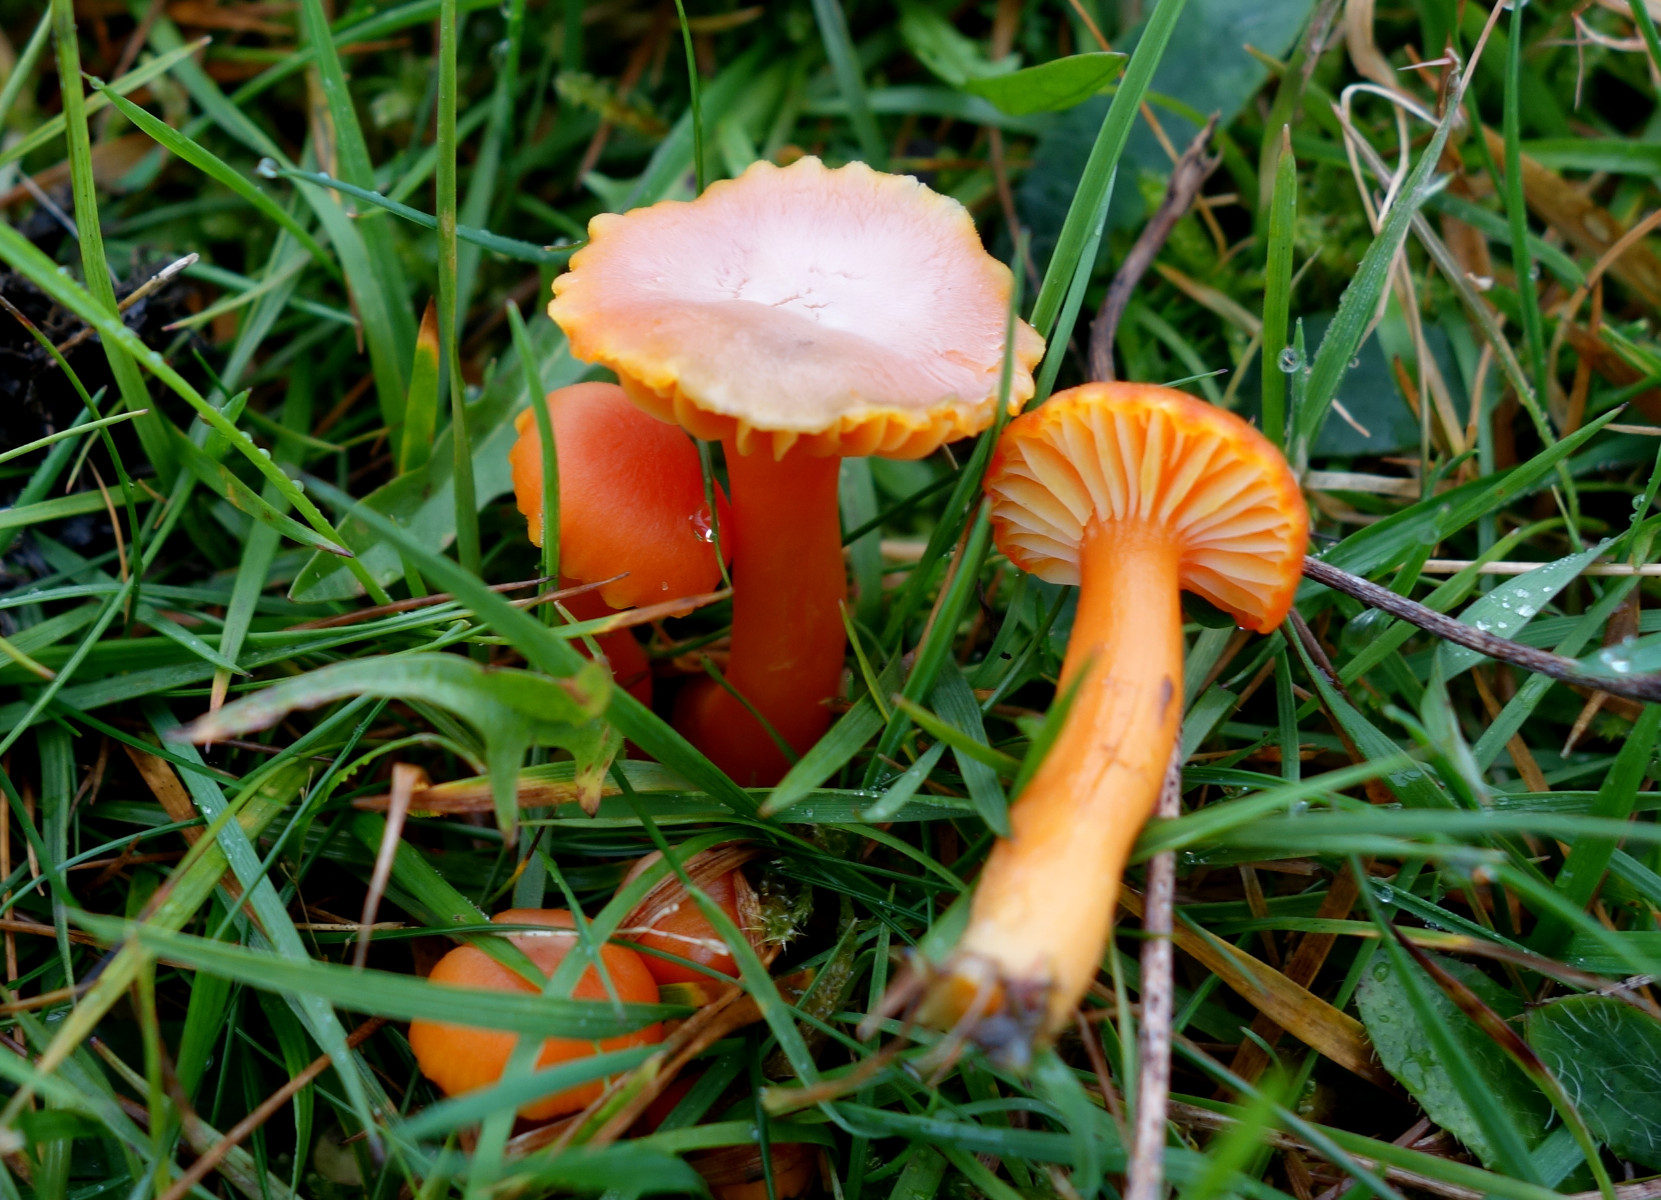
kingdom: Fungi
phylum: Basidiomycota
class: Agaricomycetes
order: Agaricales
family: Hygrophoraceae
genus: Hygrocybe
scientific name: Hygrocybe reidii
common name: honning-vokshat
